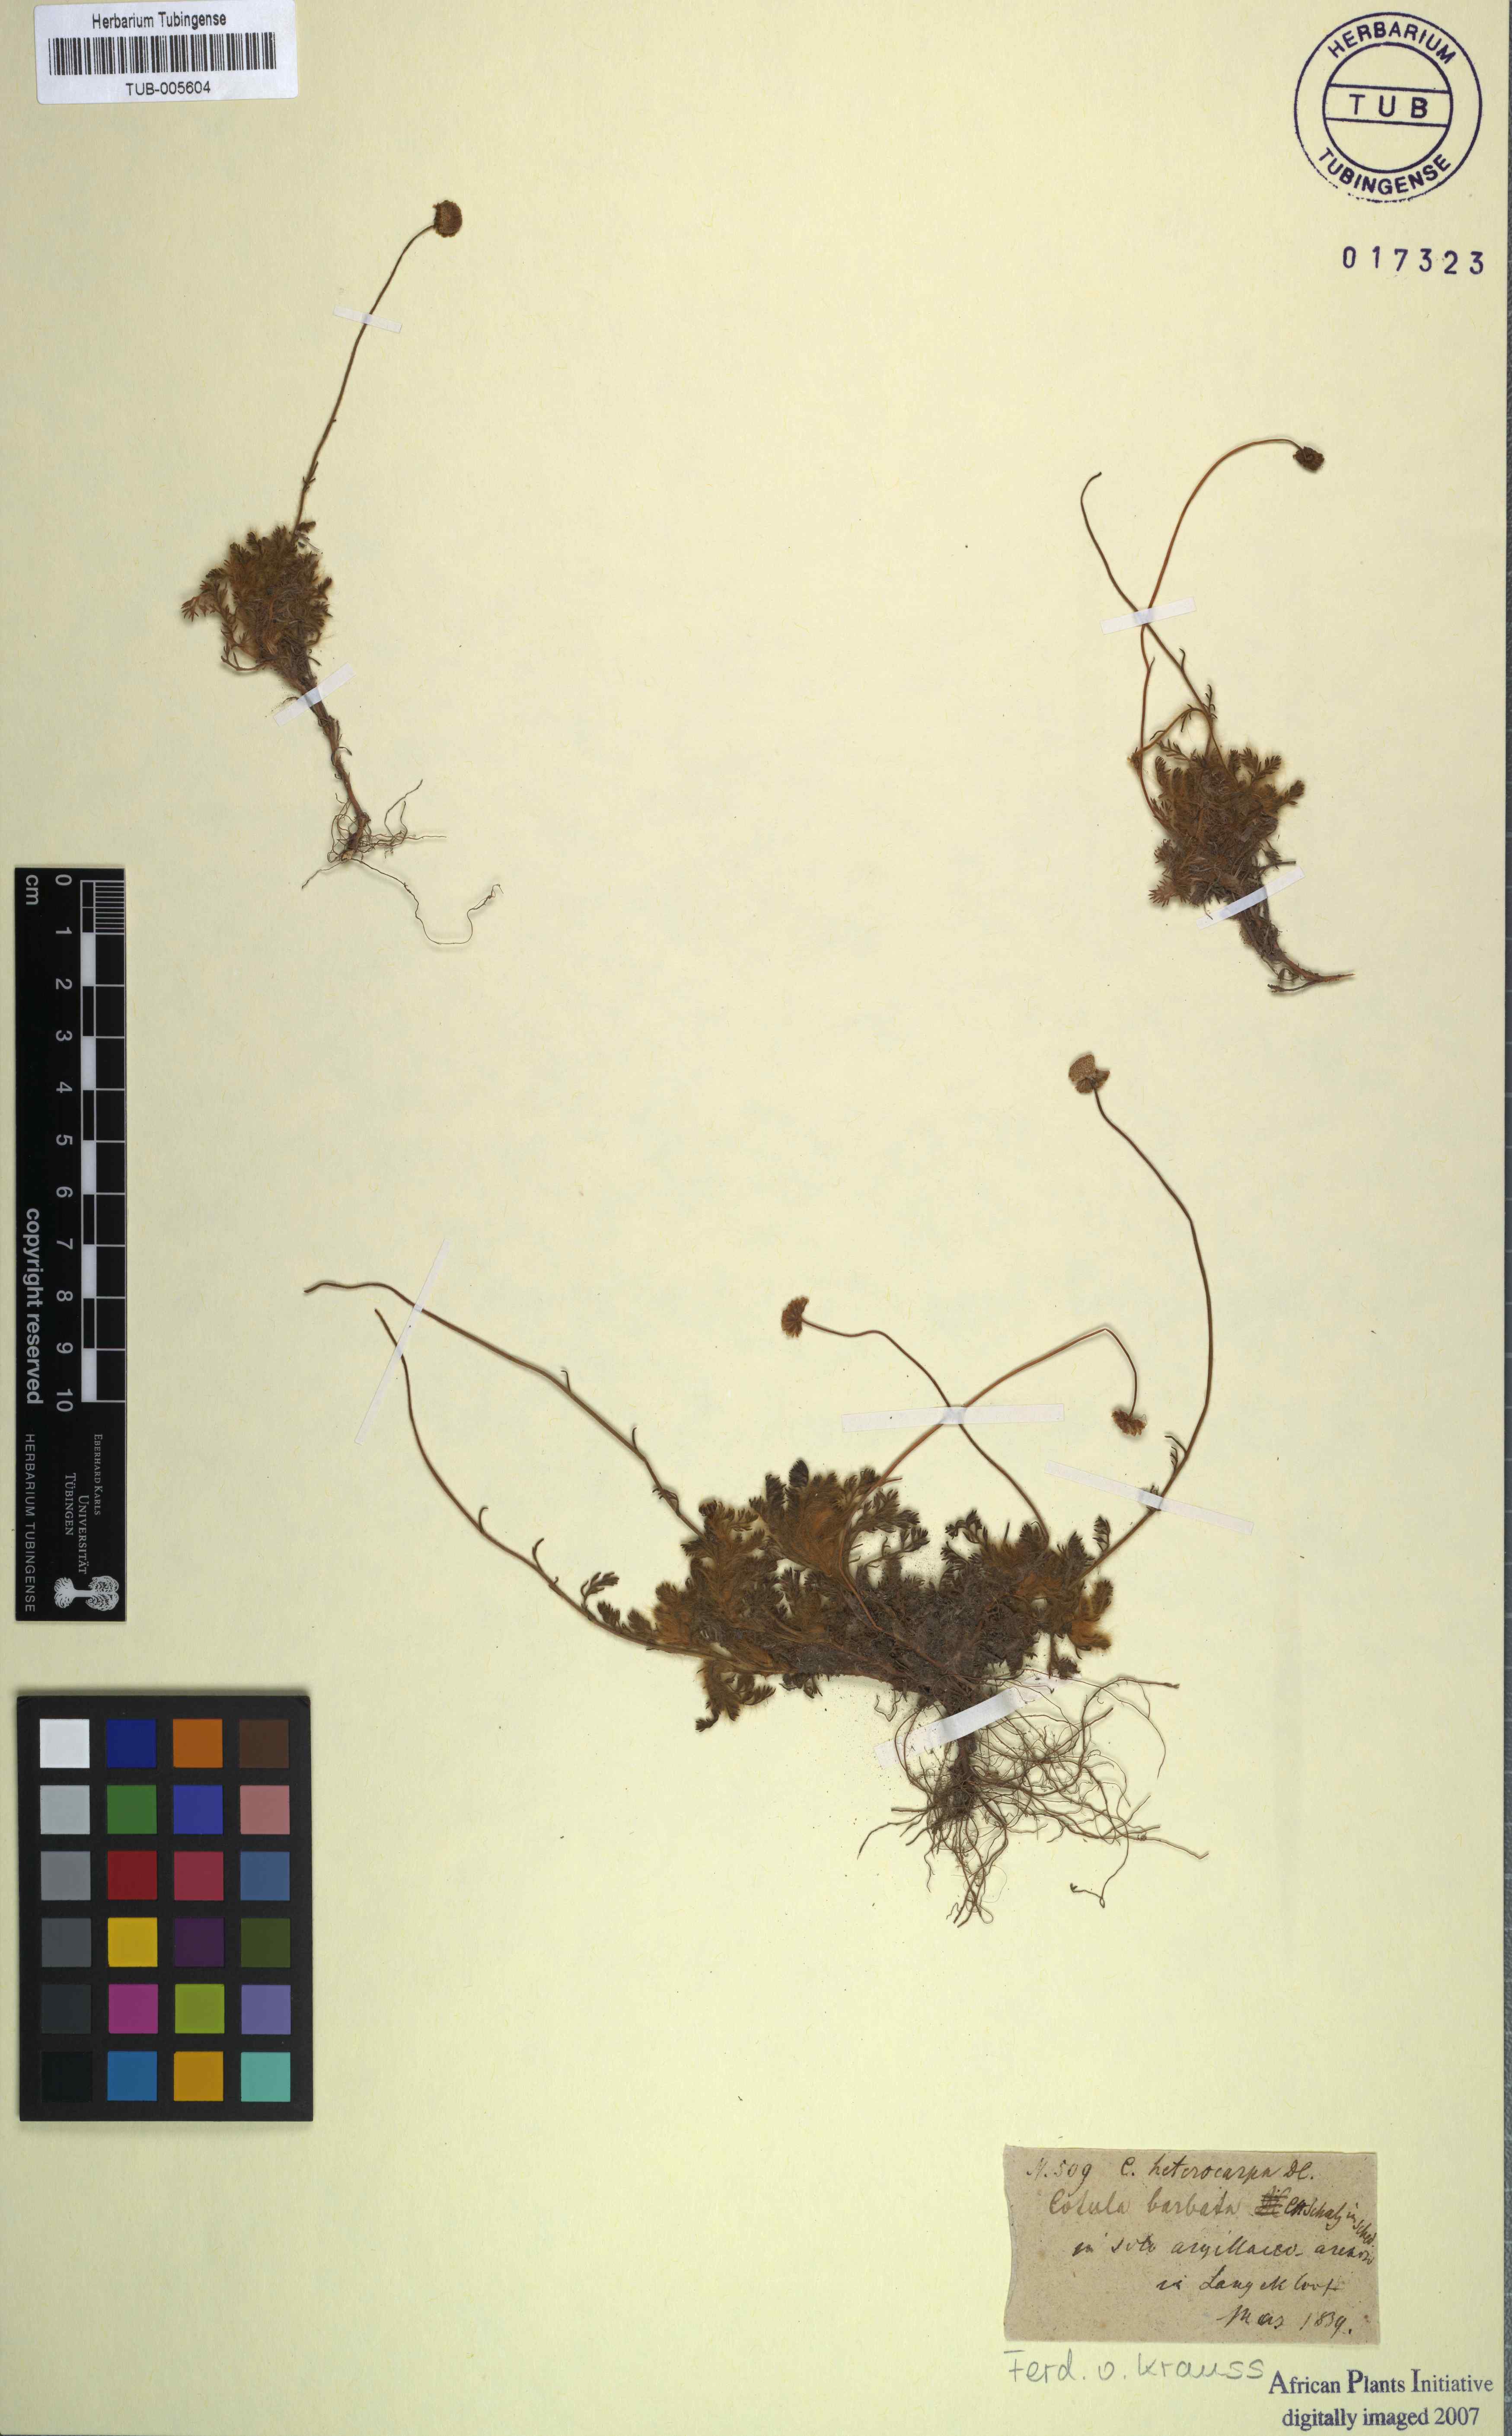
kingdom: Plantae
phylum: Tracheophyta
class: Magnoliopsida
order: Asterales
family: Asteraceae
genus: Cotula
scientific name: Cotula barbata
